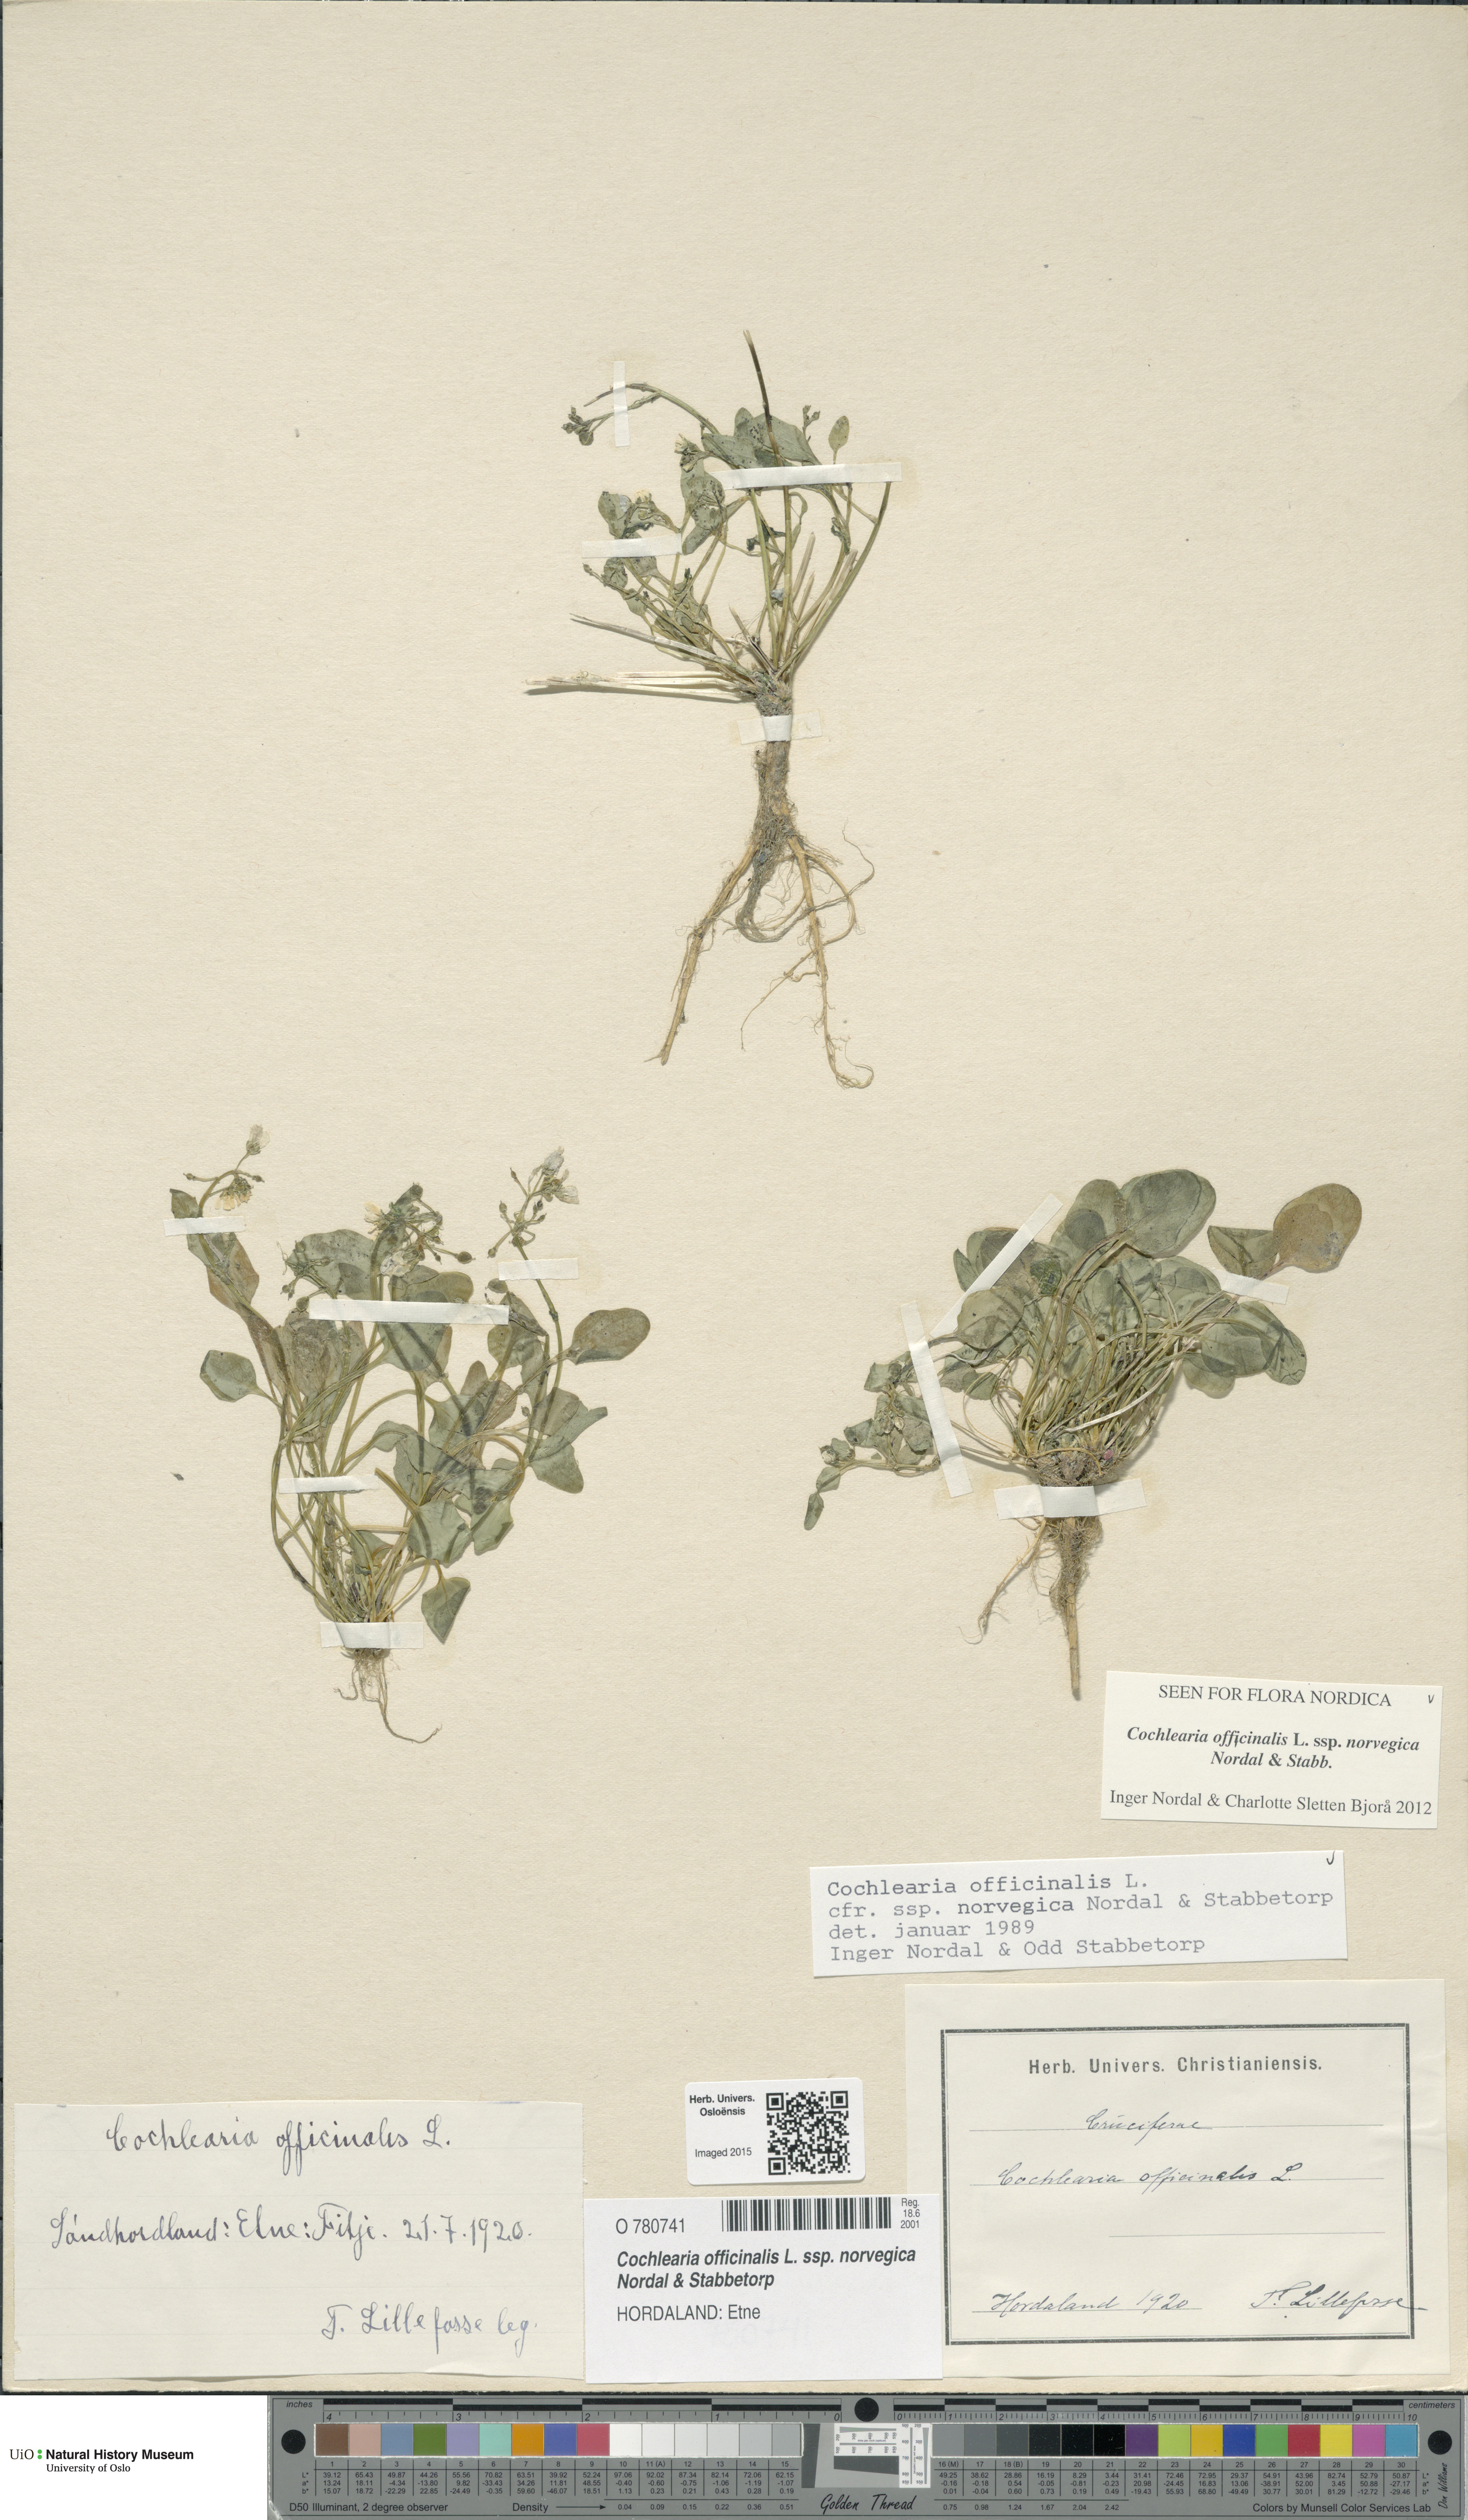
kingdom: Plantae
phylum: Tracheophyta
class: Magnoliopsida
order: Brassicales
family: Brassicaceae
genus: Cochlearia
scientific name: Cochlearia officinalis
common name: Scurvy-grass
